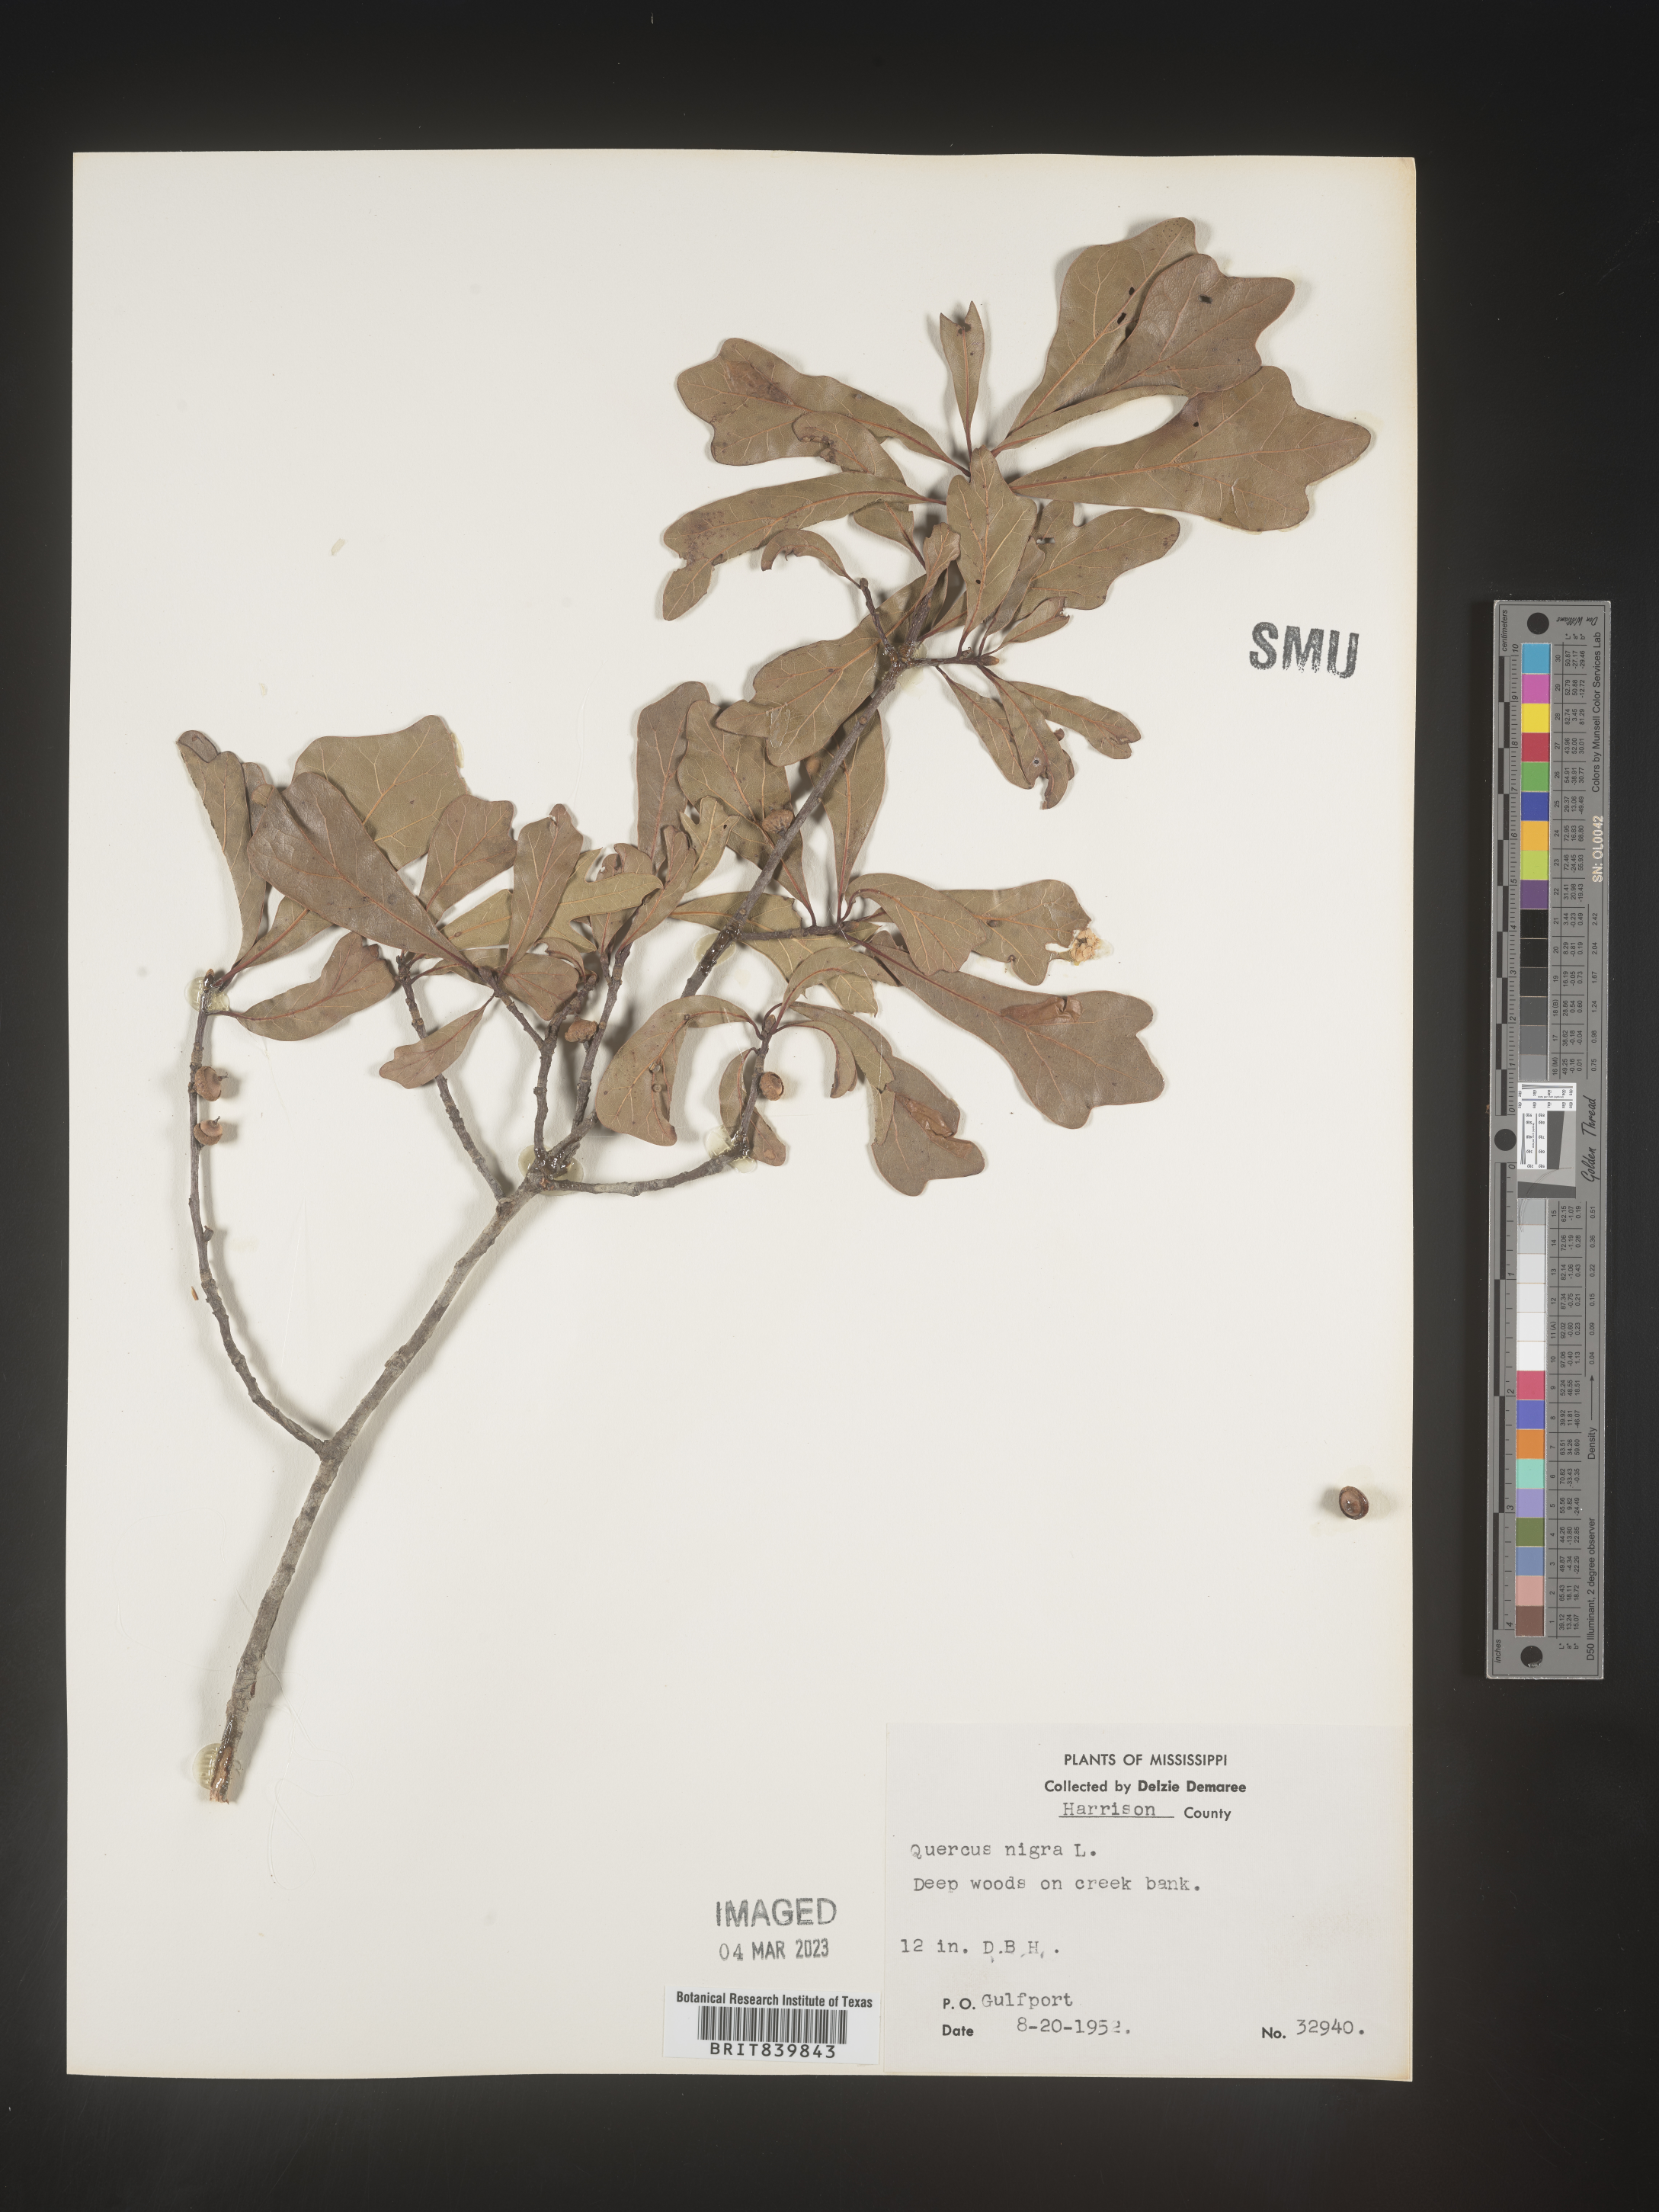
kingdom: Plantae
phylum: Tracheophyta
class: Magnoliopsida
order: Fagales
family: Fagaceae
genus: Quercus
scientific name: Quercus nigra
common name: Water oak
